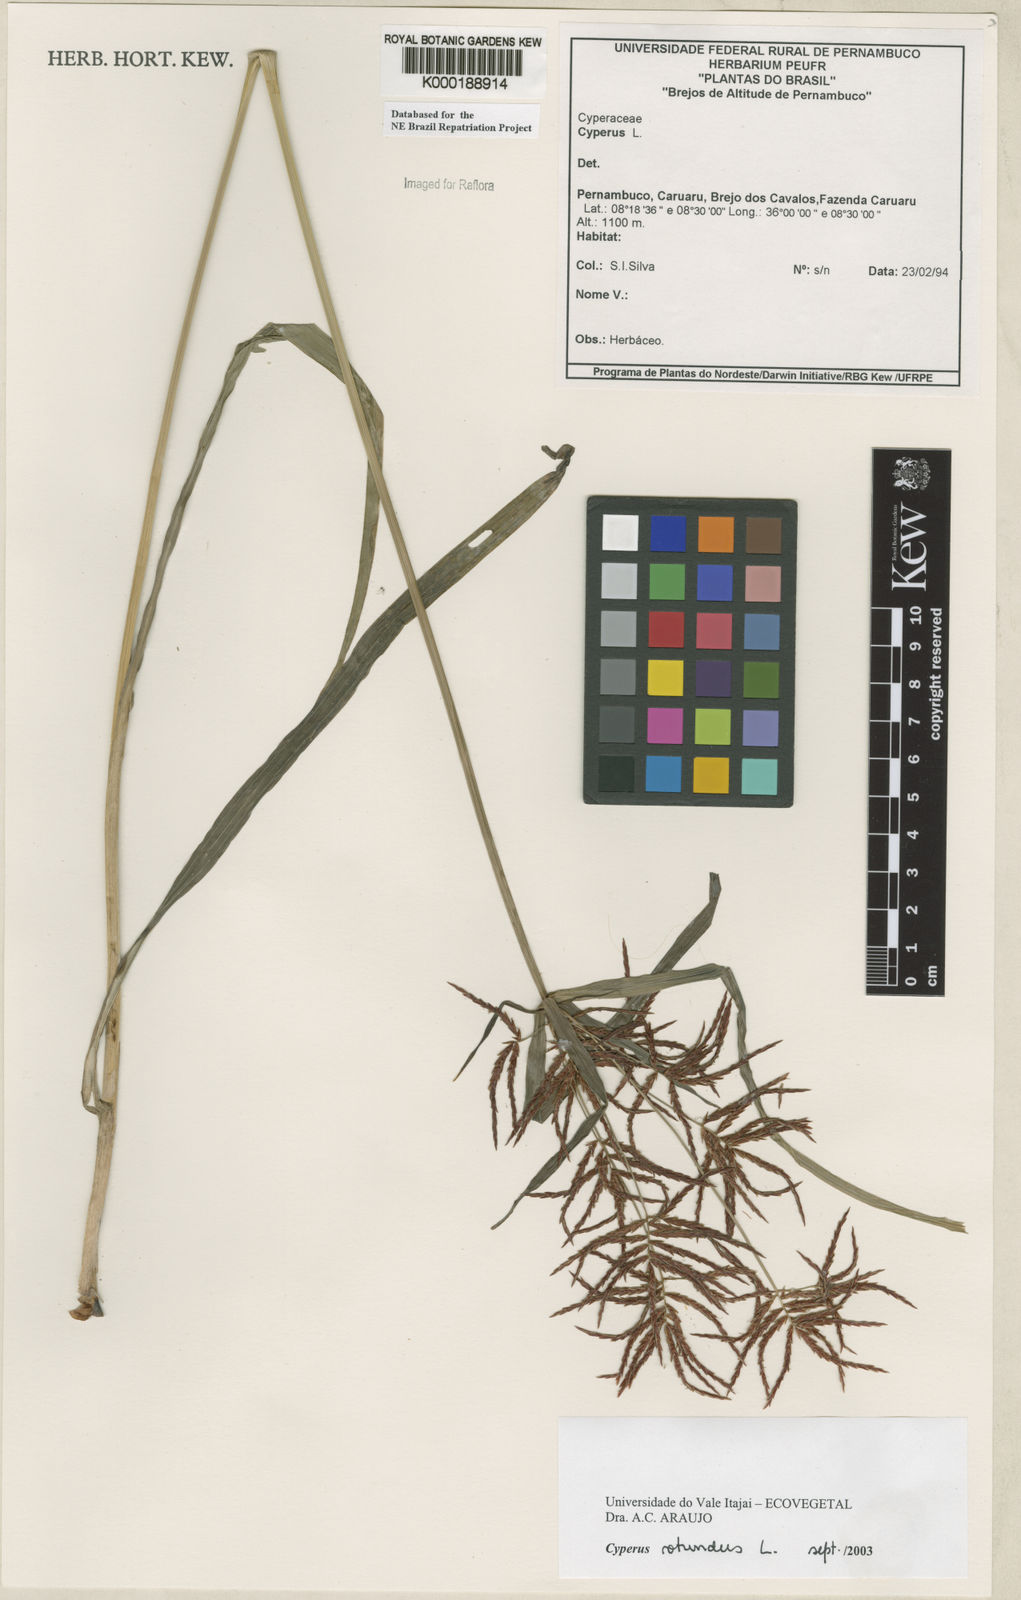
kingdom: Plantae
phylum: Tracheophyta
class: Liliopsida
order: Poales
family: Cyperaceae
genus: Cyperus
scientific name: Cyperus rotundus
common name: Nutgrass
